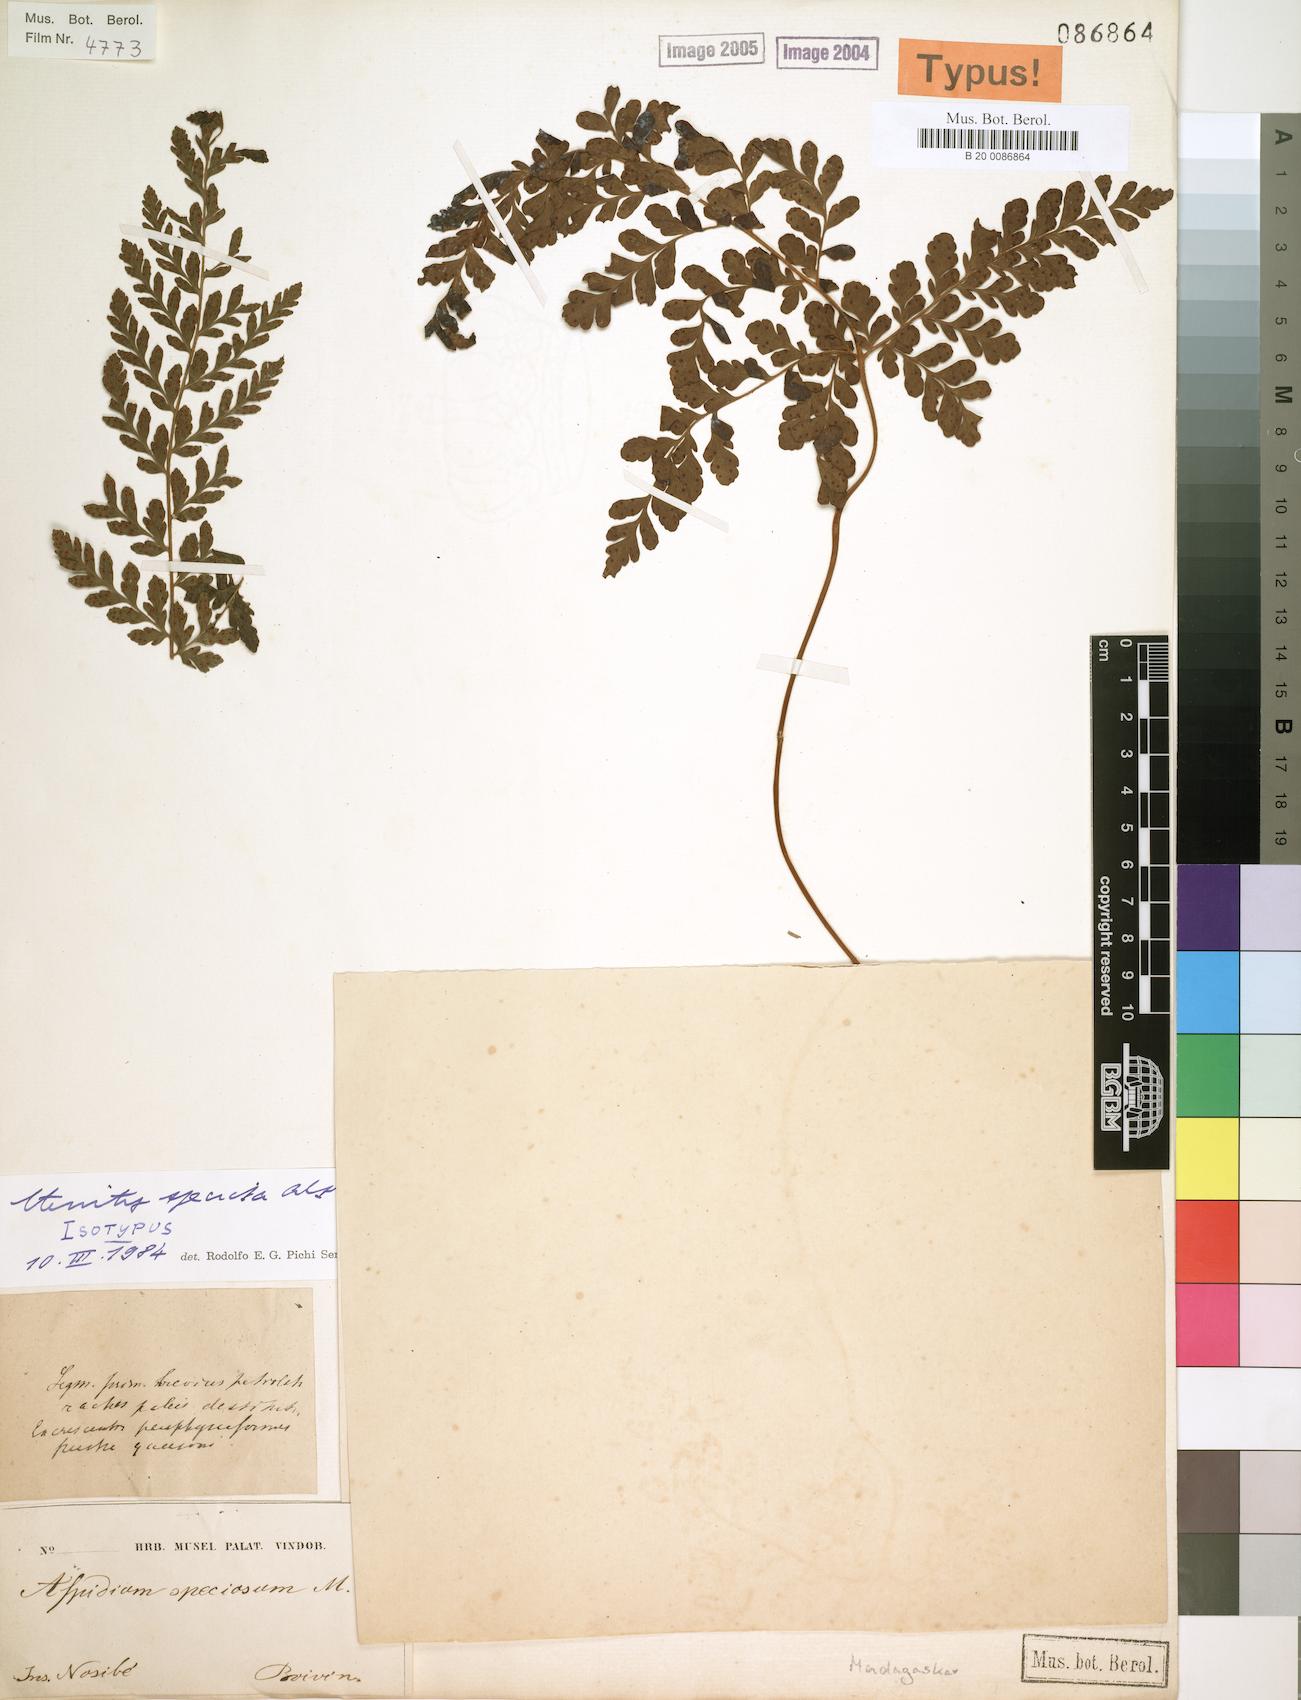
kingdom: Plantae
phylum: Tracheophyta
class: Polypodiopsida
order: Polypodiales
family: Tectariaceae
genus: Triplophyllum
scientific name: Triplophyllum speciosum
